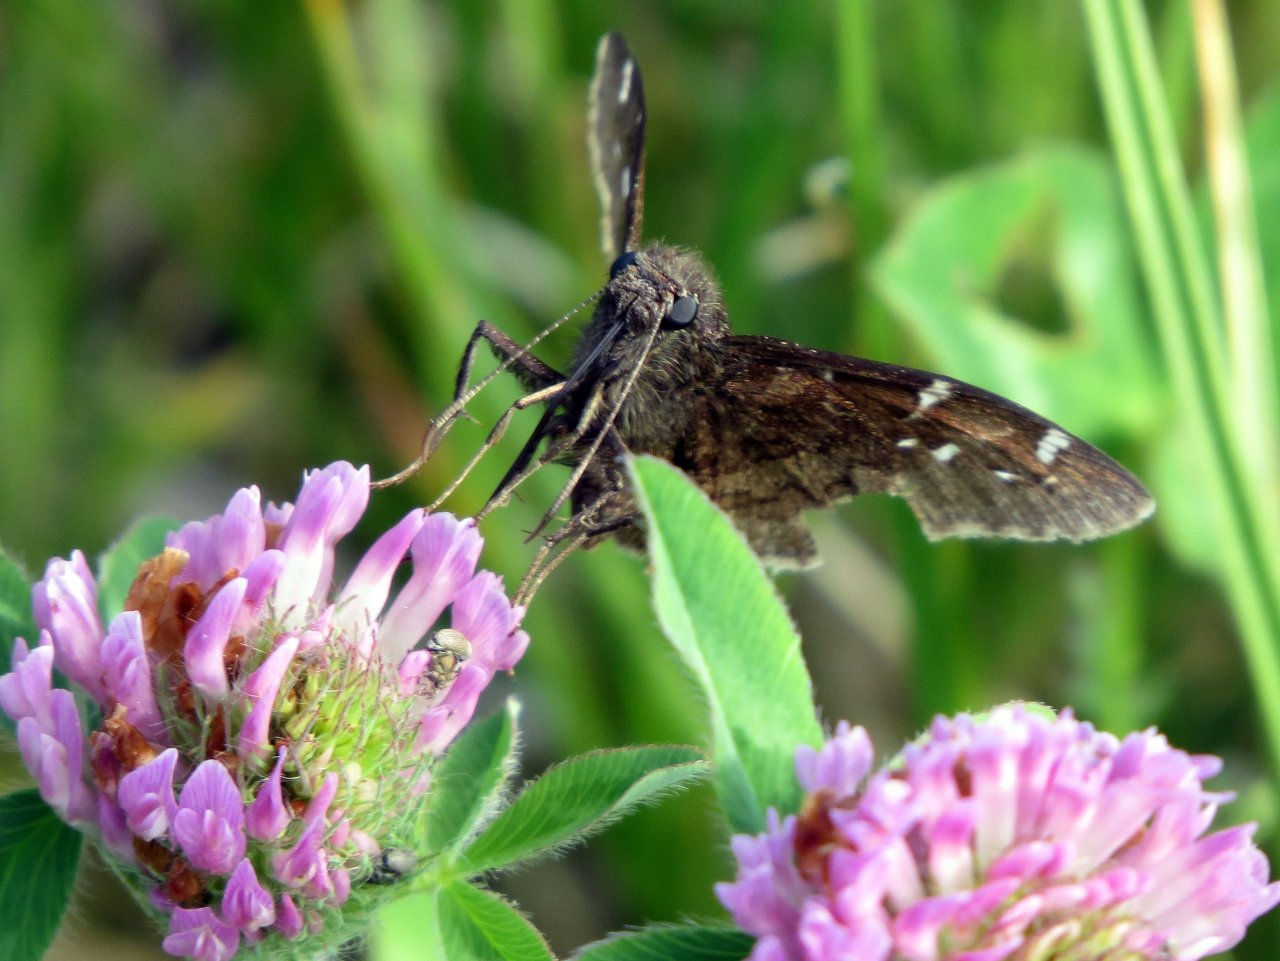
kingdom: Animalia
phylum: Arthropoda
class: Insecta
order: Lepidoptera
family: Hesperiidae
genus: Autochton
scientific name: Autochton
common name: Northern Cloudywing
